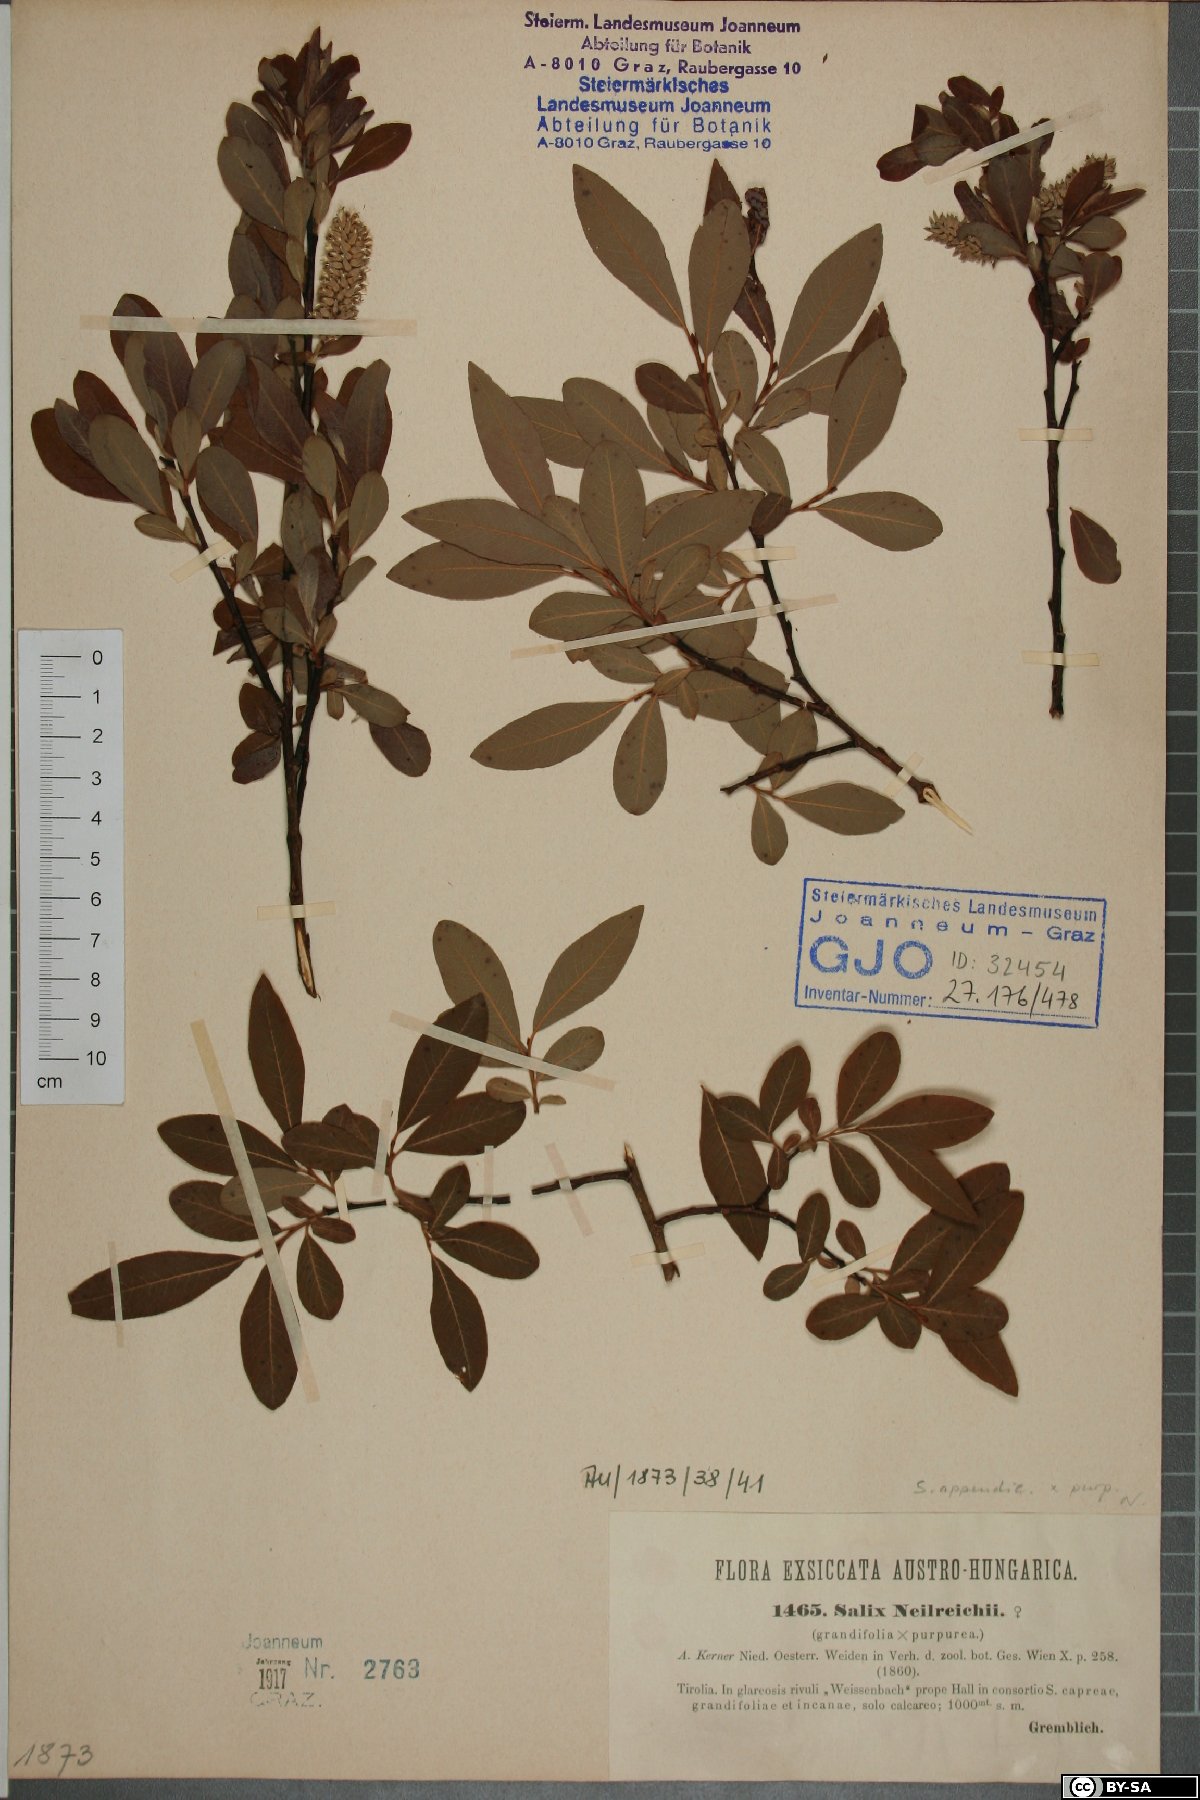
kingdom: Plantae
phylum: Tracheophyta
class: Magnoliopsida
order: Malpighiales
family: Salicaceae
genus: Salix
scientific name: Salix purpurea
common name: Purple willow
